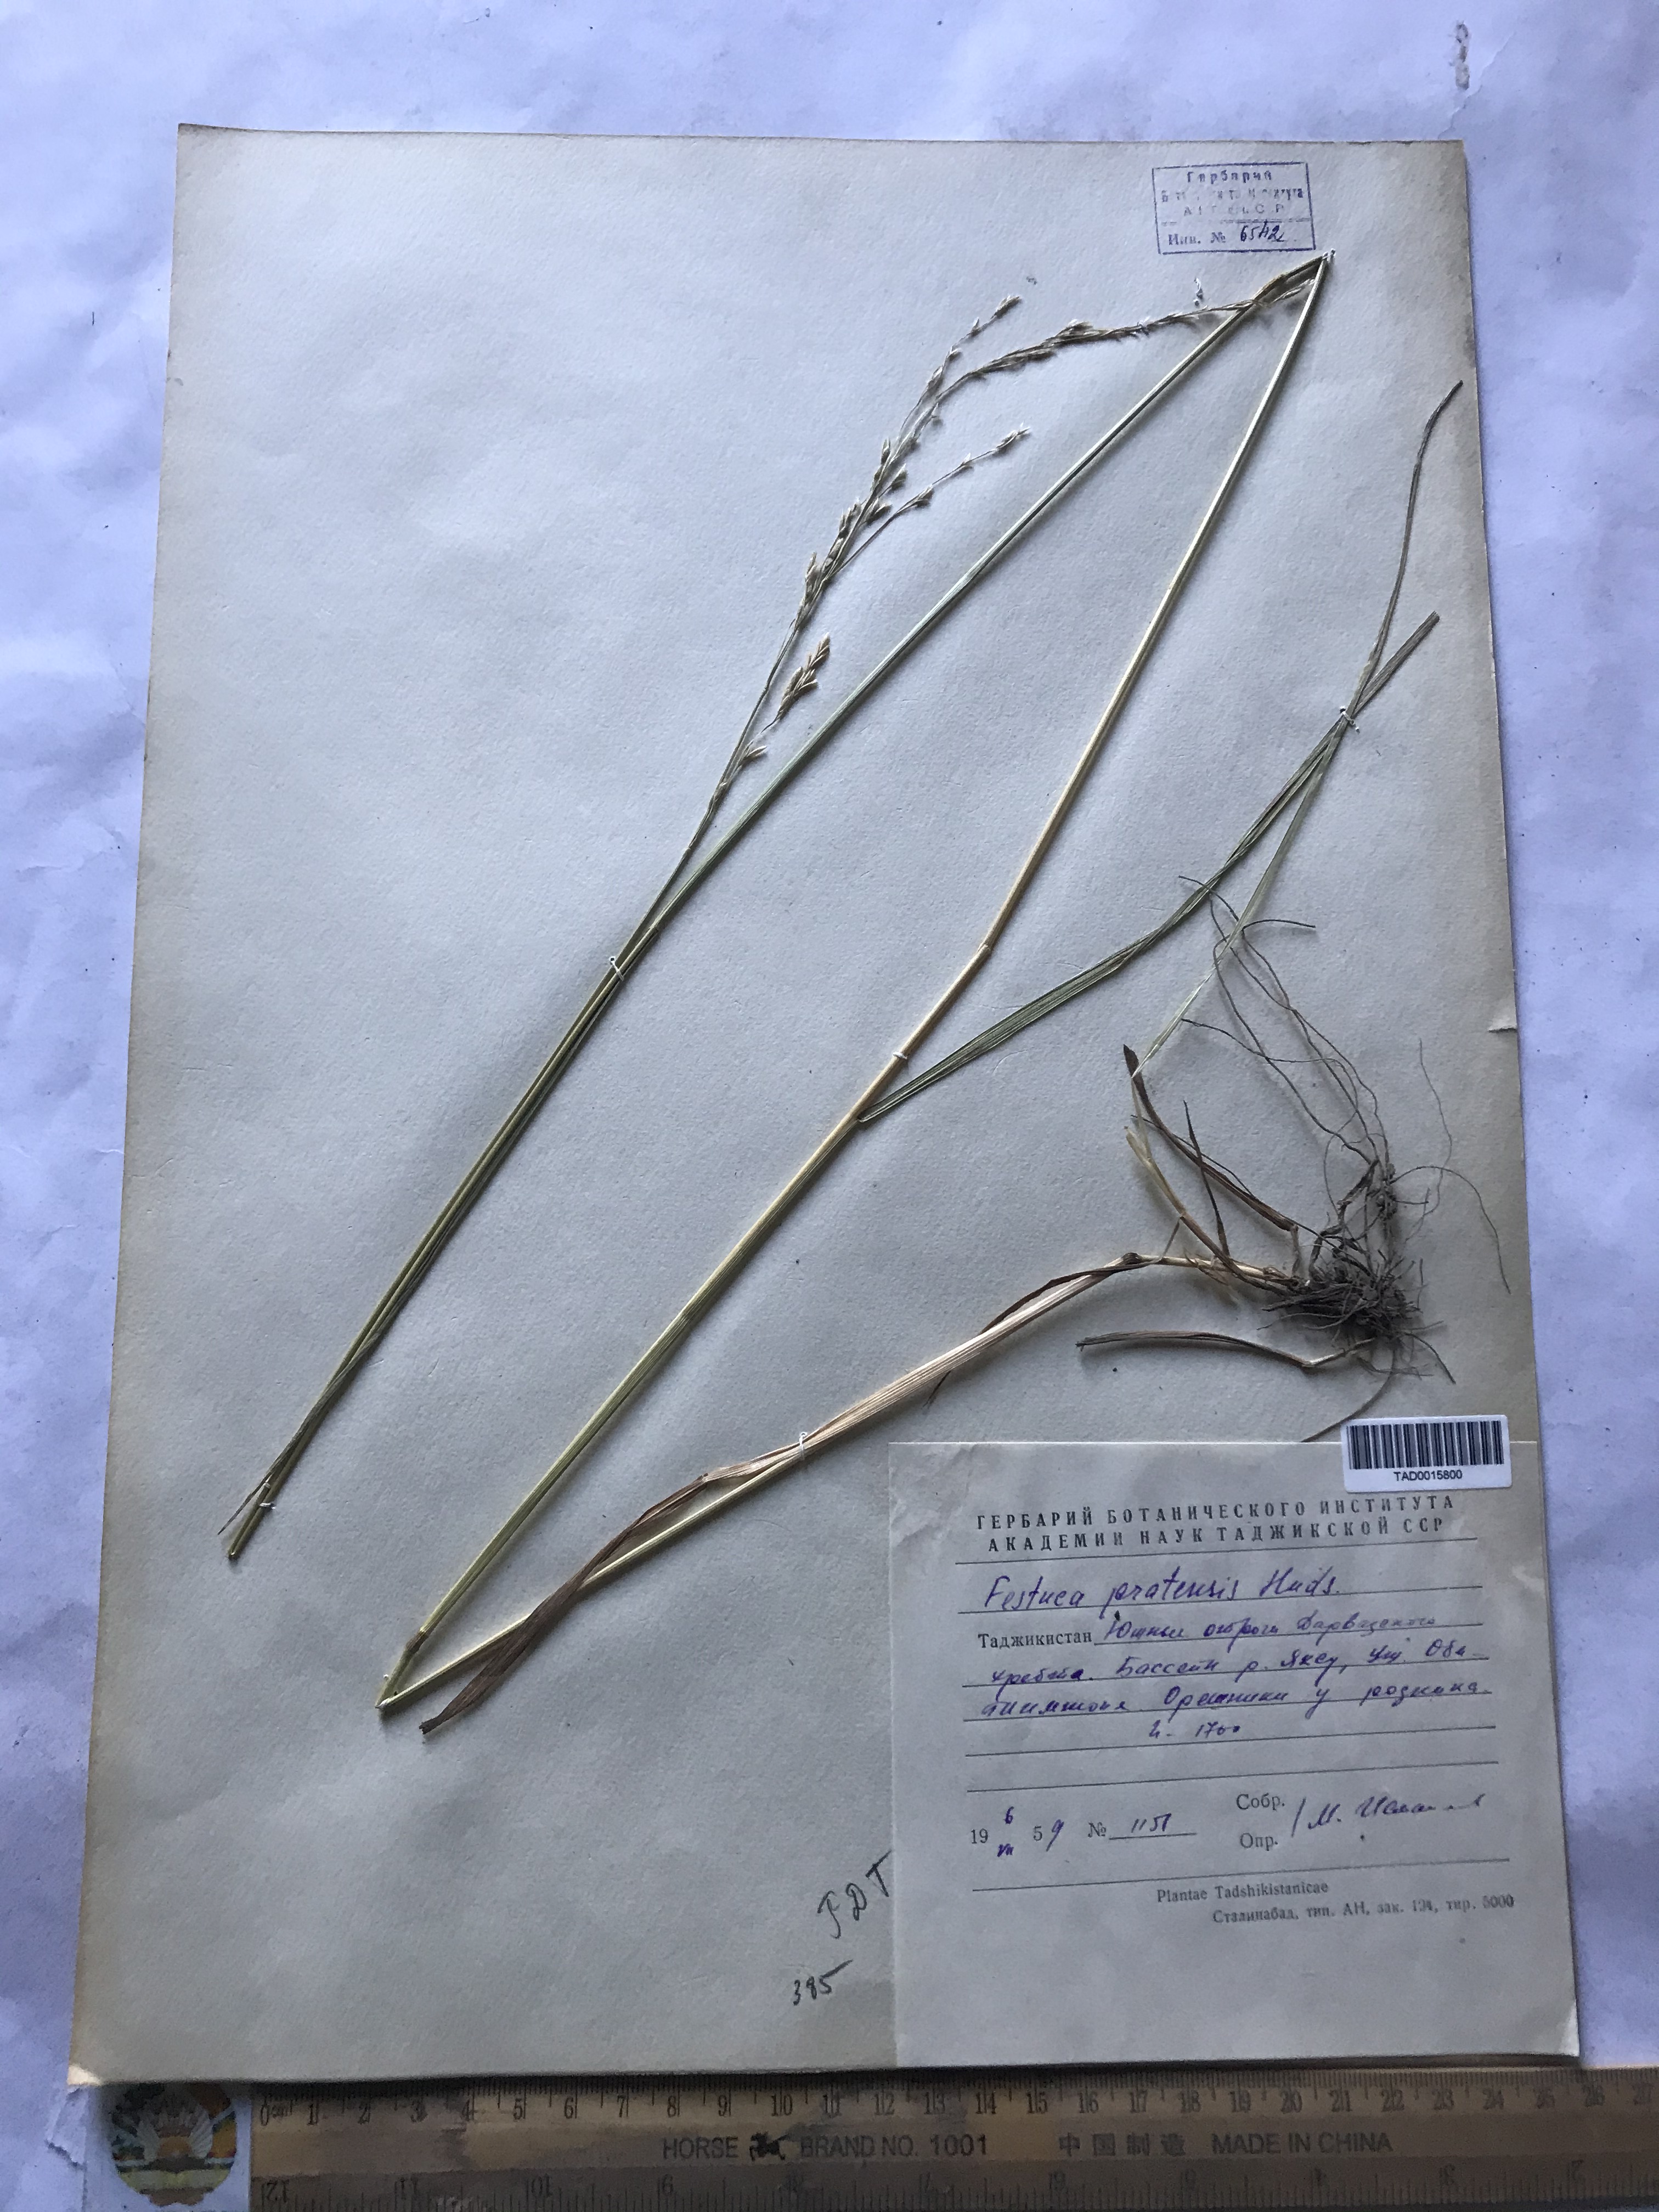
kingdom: Plantae
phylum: Tracheophyta
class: Liliopsida
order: Poales
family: Poaceae
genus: Lolium
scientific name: Lolium pratense
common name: Dover grass
